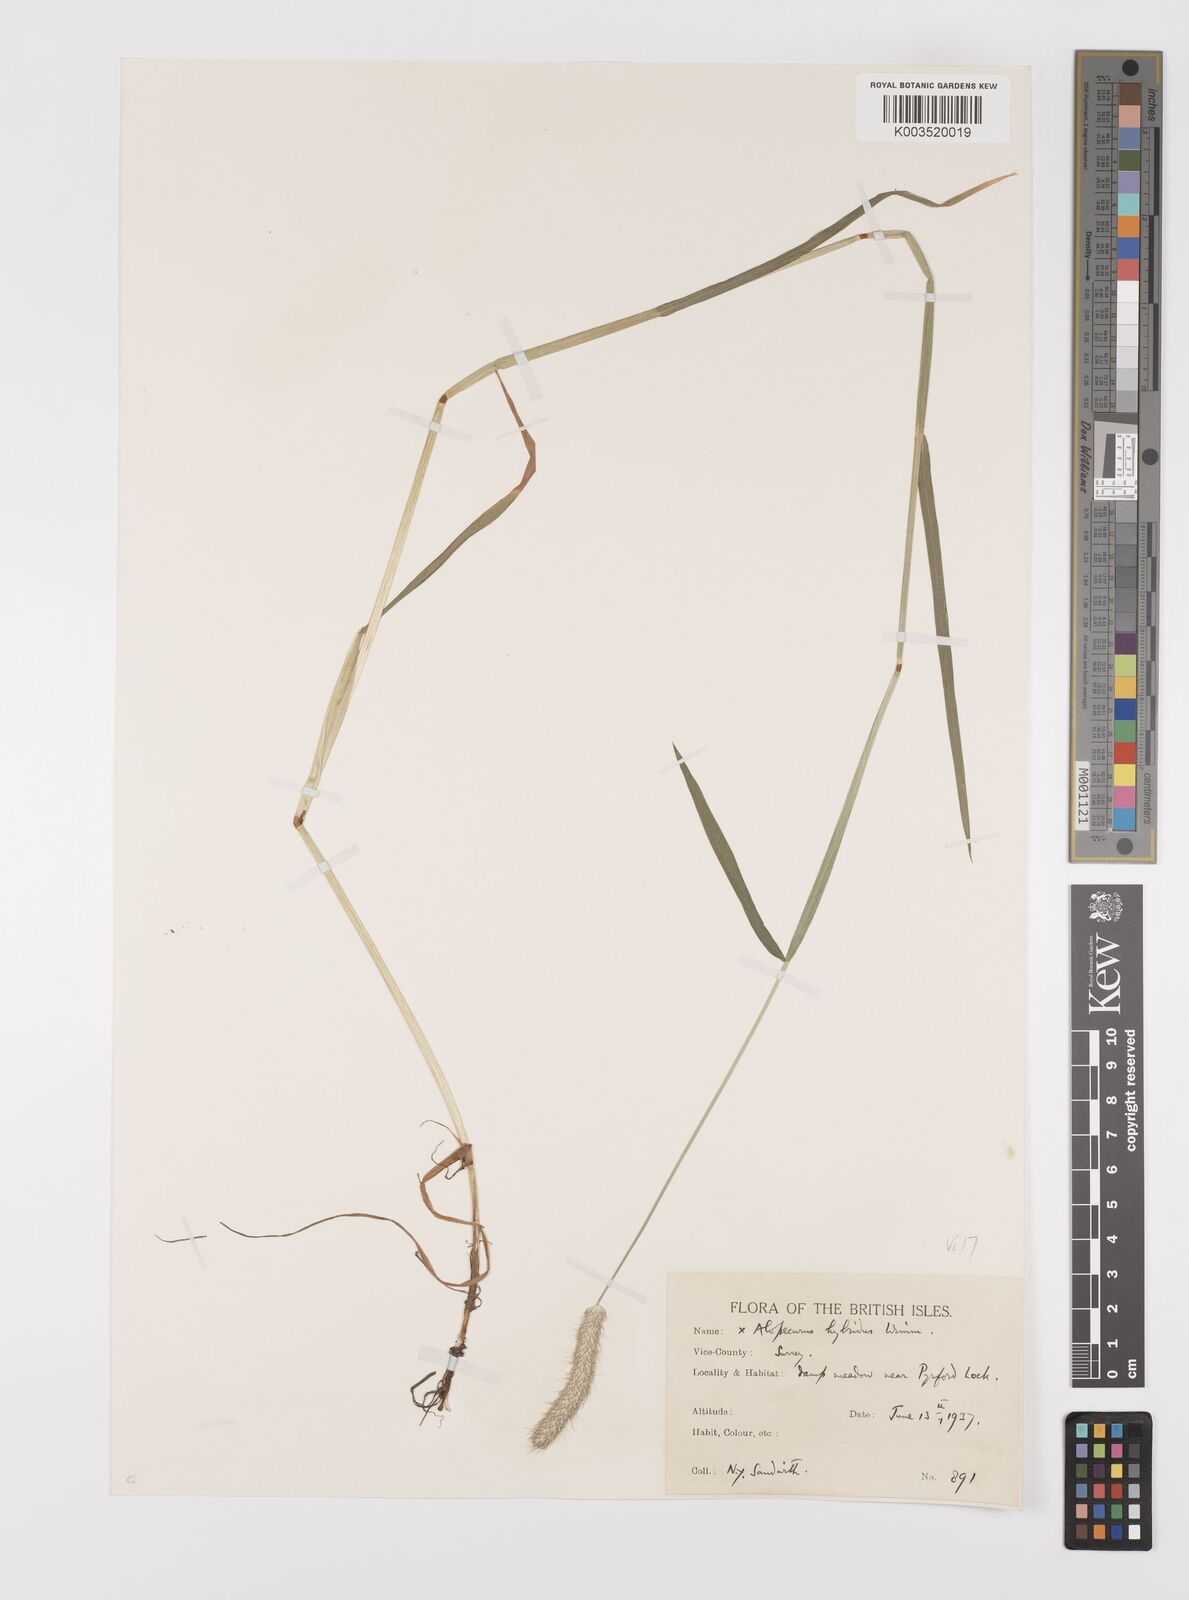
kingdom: Plantae
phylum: Tracheophyta
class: Liliopsida
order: Poales
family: Poaceae
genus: Alopecurus
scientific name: Alopecurus brachystylus
